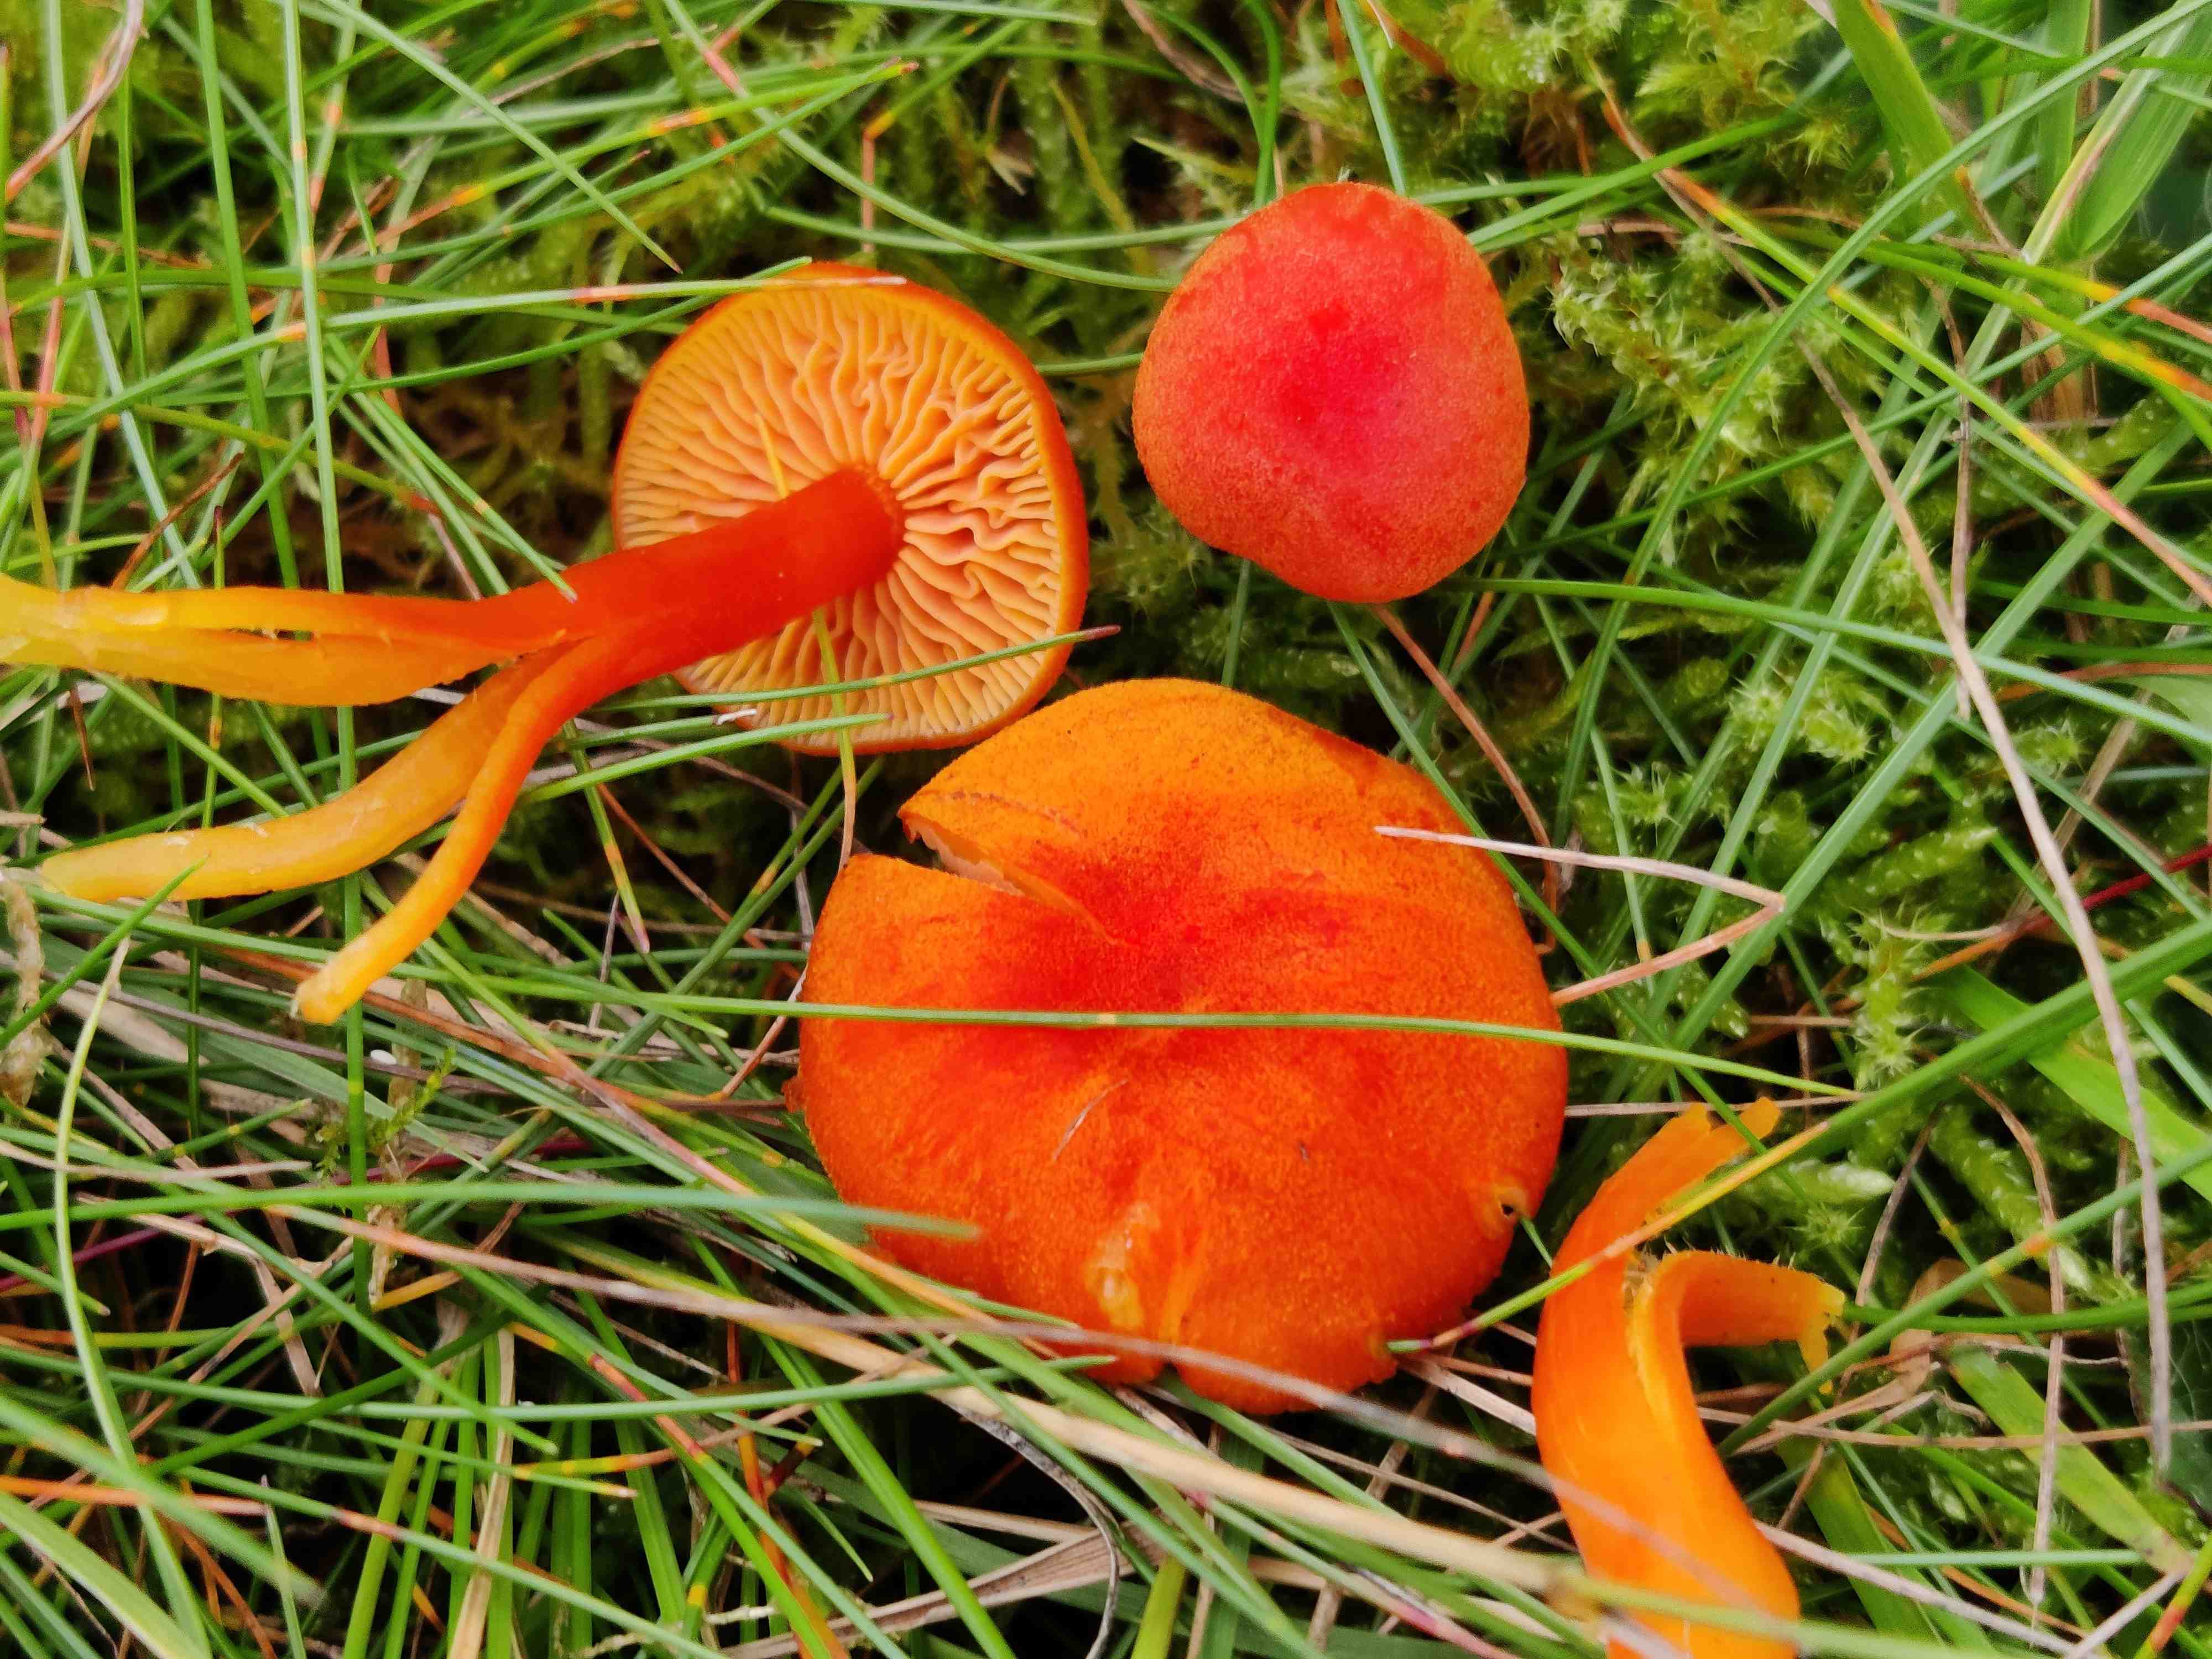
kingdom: Fungi
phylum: Basidiomycota
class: Agaricomycetes
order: Agaricales
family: Hygrophoraceae
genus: Hygrocybe
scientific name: Hygrocybe miniata
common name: mønje-vokshat
